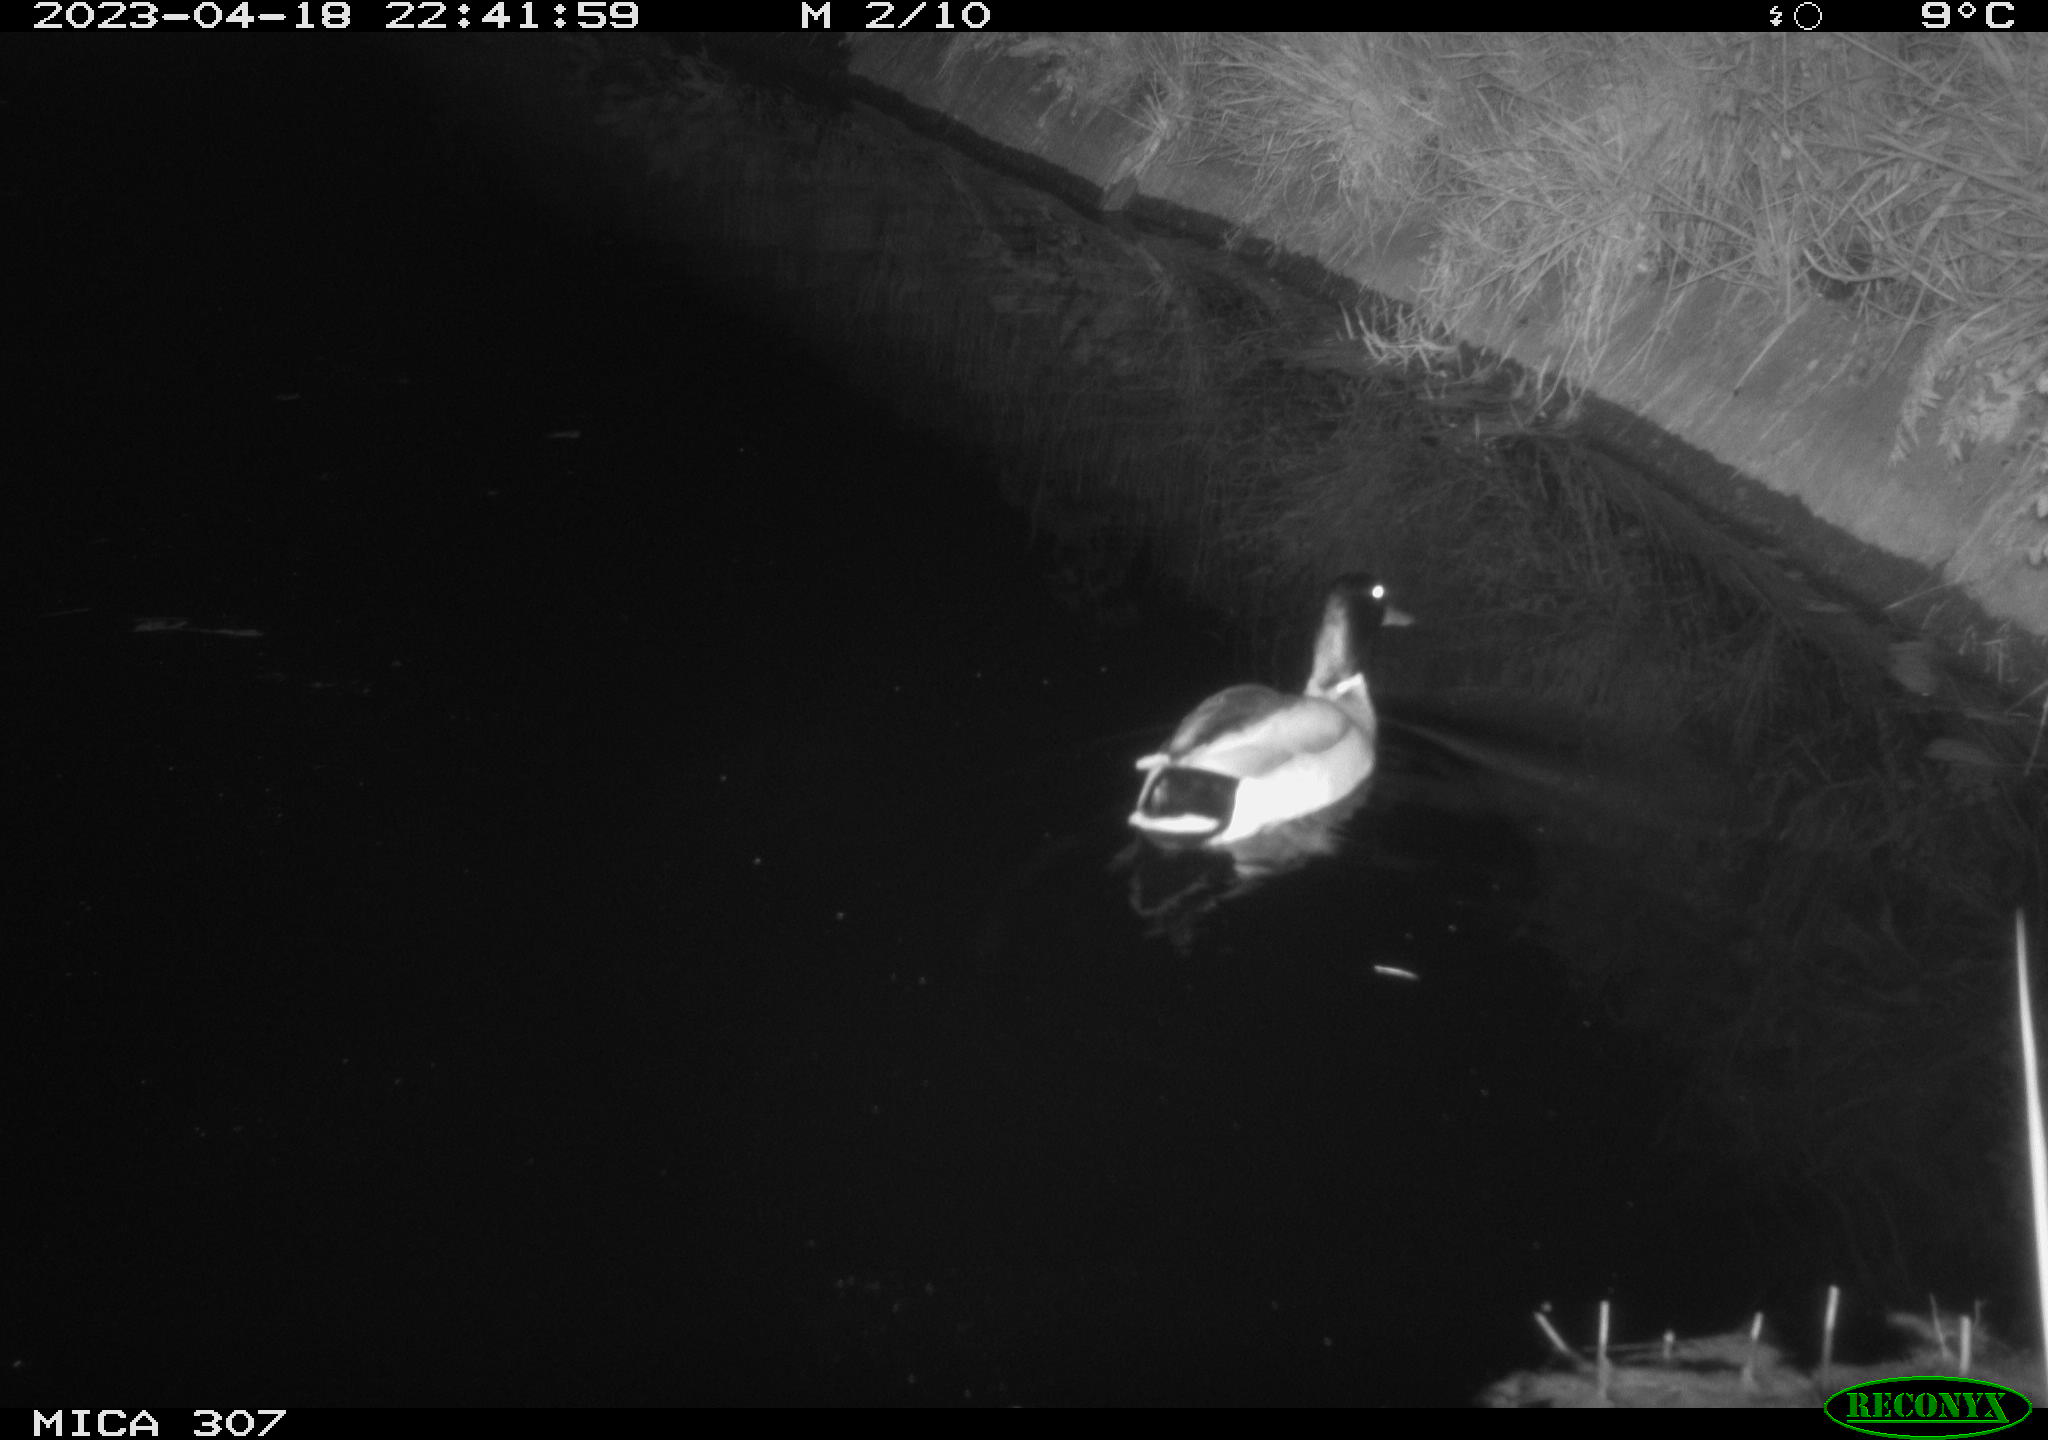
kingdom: Animalia
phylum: Chordata
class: Aves
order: Anseriformes
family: Anatidae
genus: Anas
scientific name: Anas
